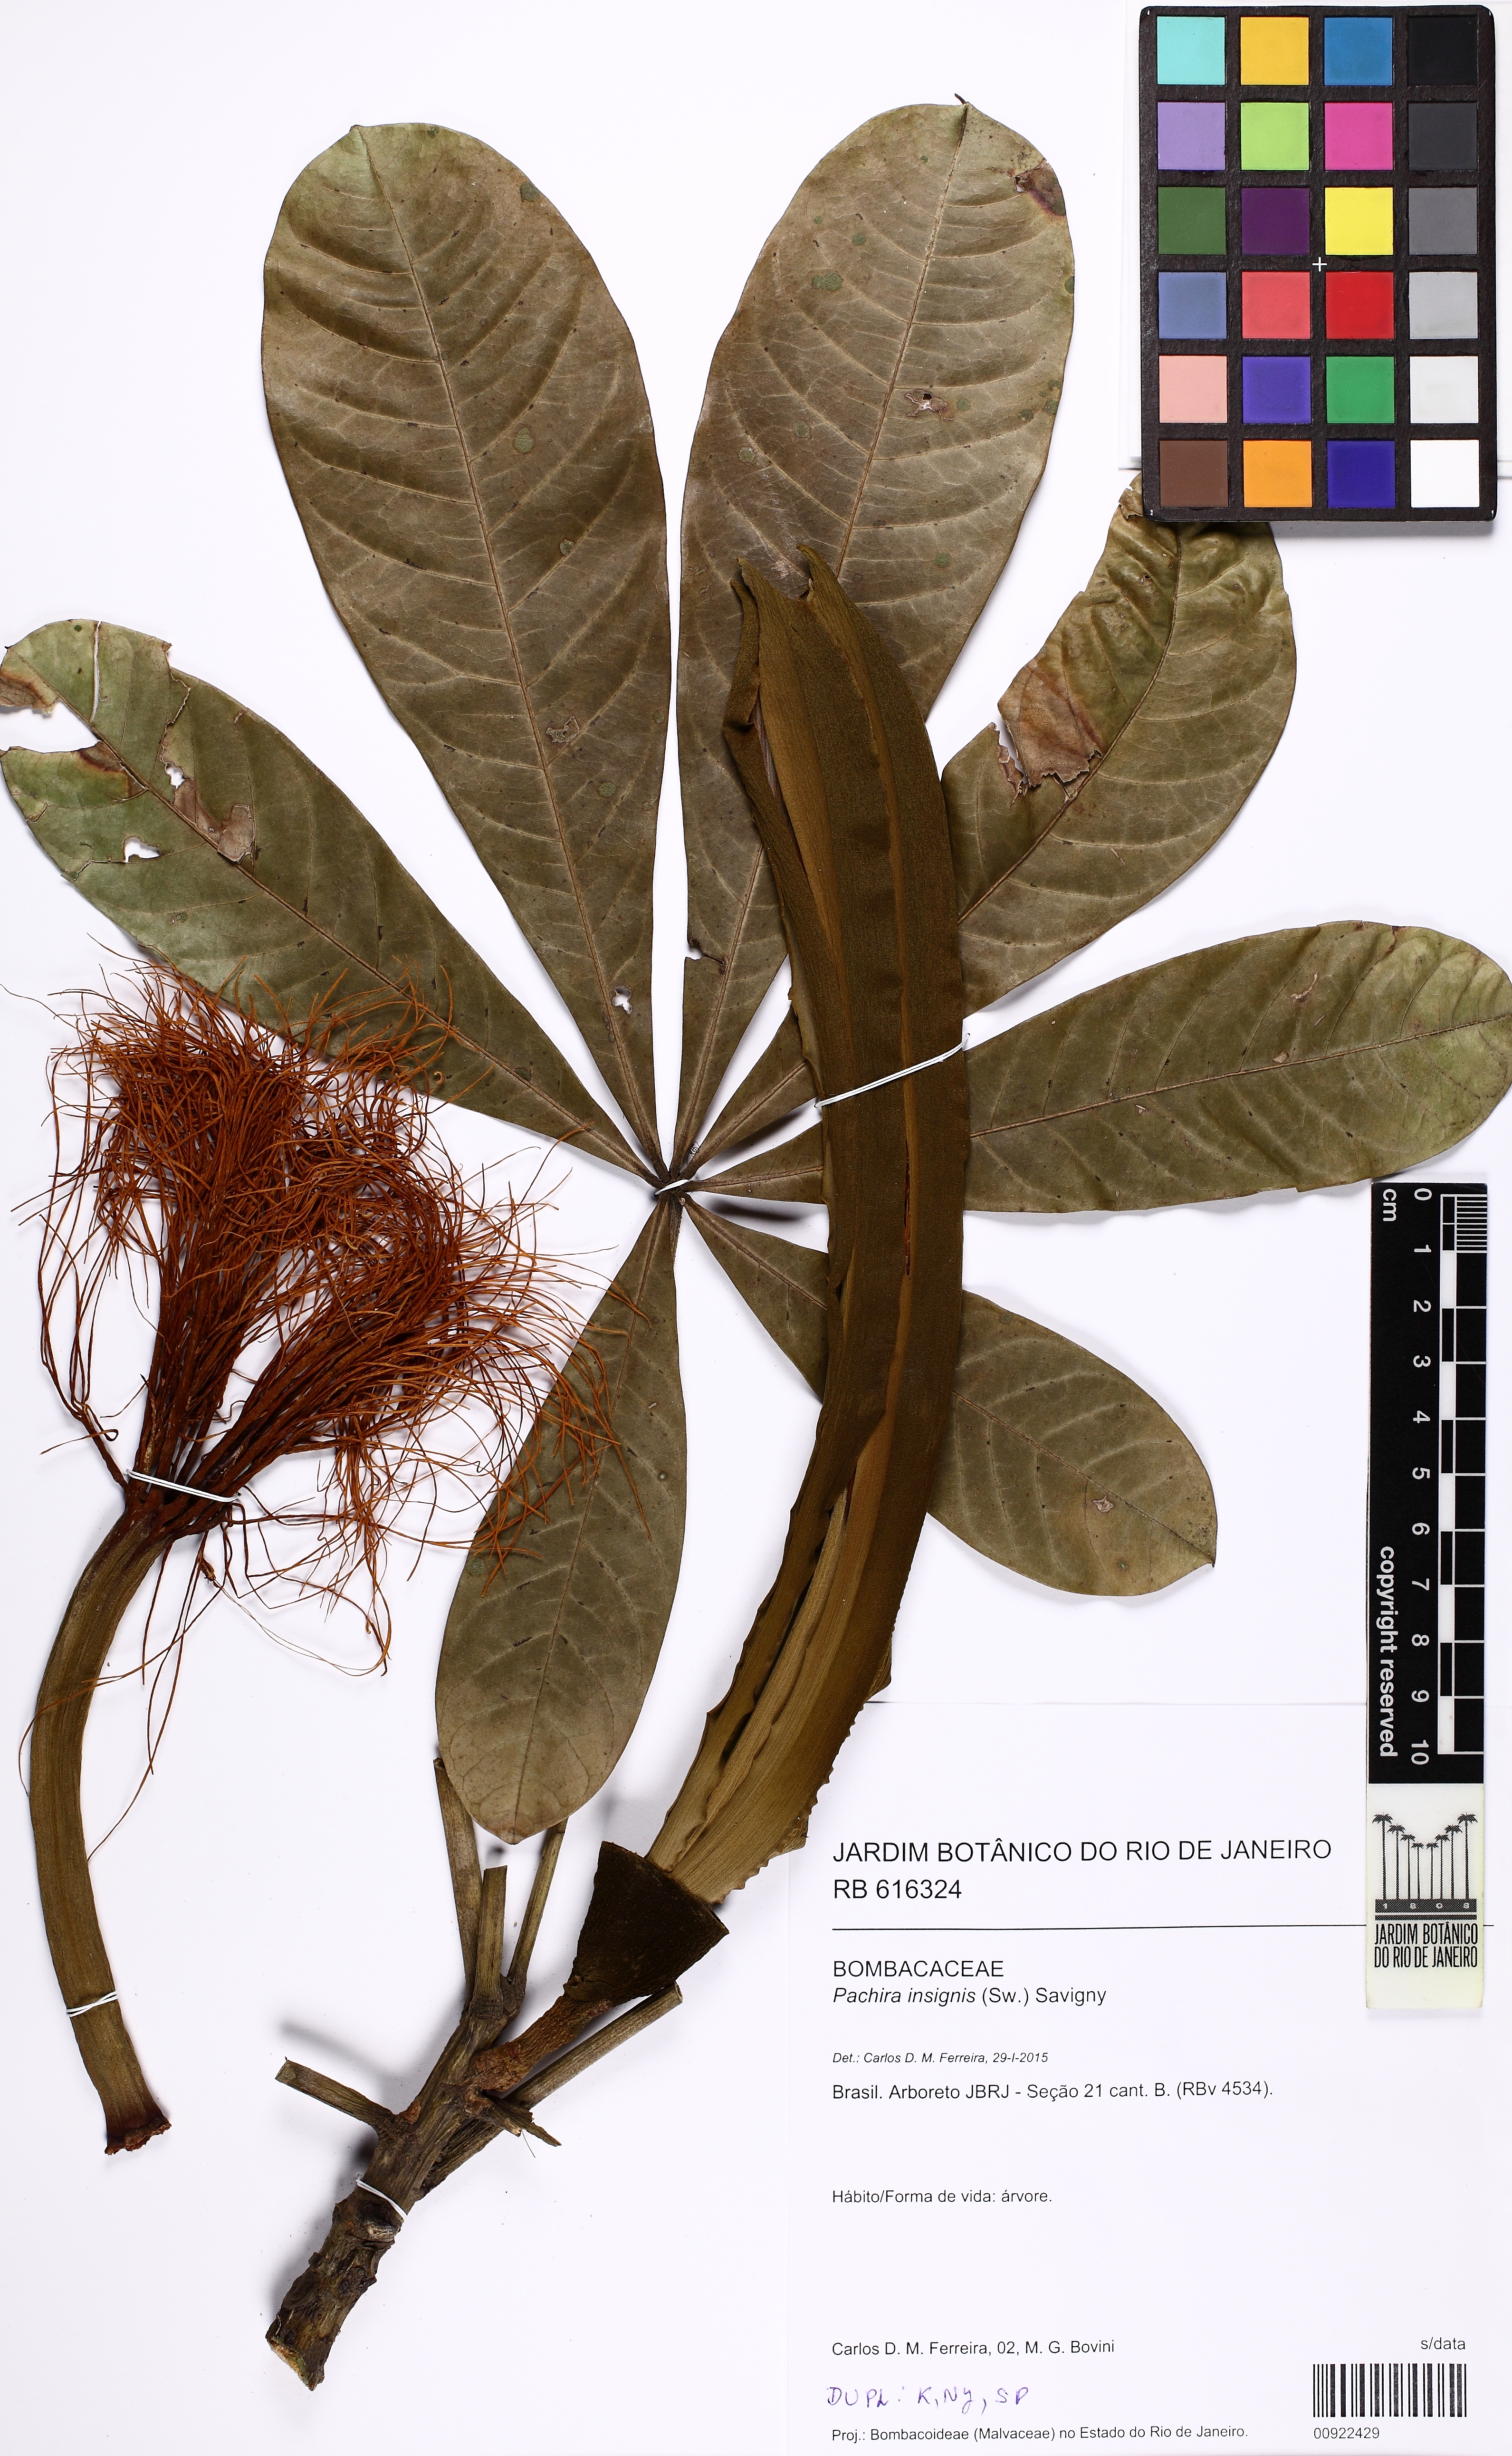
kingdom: Plantae
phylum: Tracheophyta
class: Magnoliopsida
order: Malvales
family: Malvaceae
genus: Pachira
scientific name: Pachira insignis
